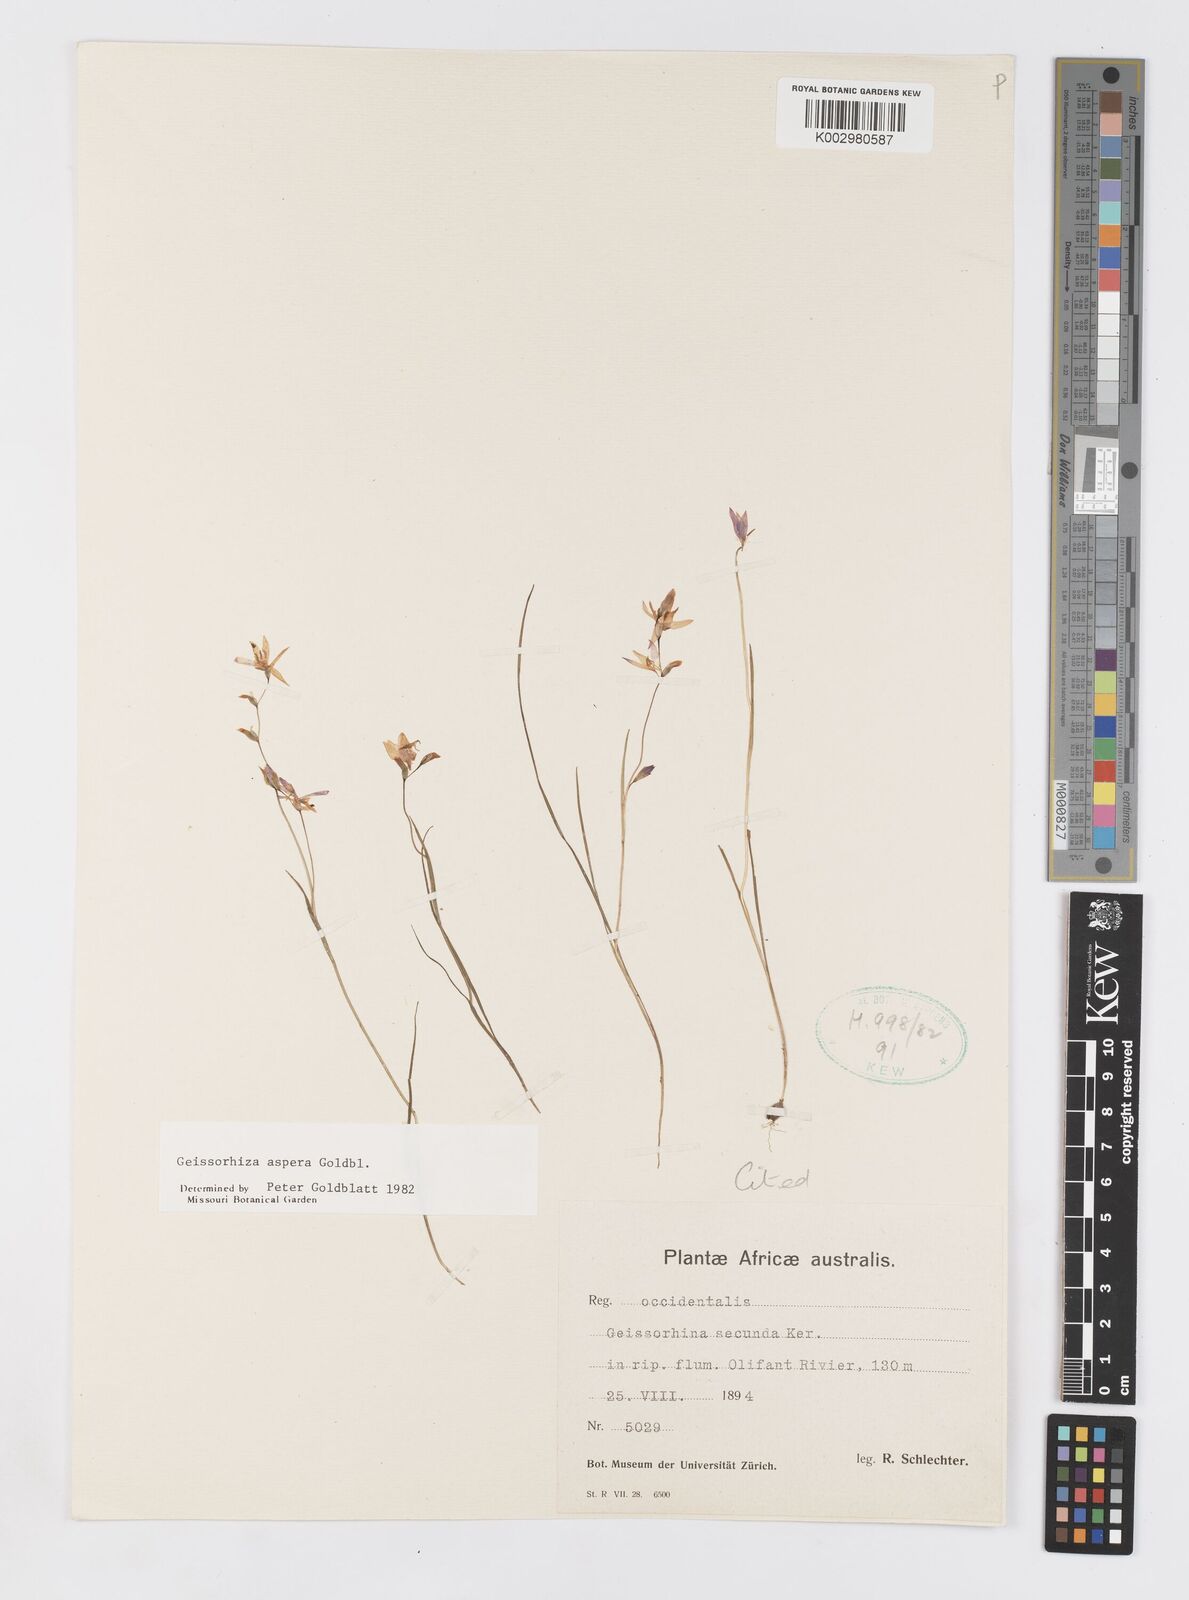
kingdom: Plantae
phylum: Tracheophyta
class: Liliopsida
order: Asparagales
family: Iridaceae
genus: Geissorhiza
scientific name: Geissorhiza aspera
